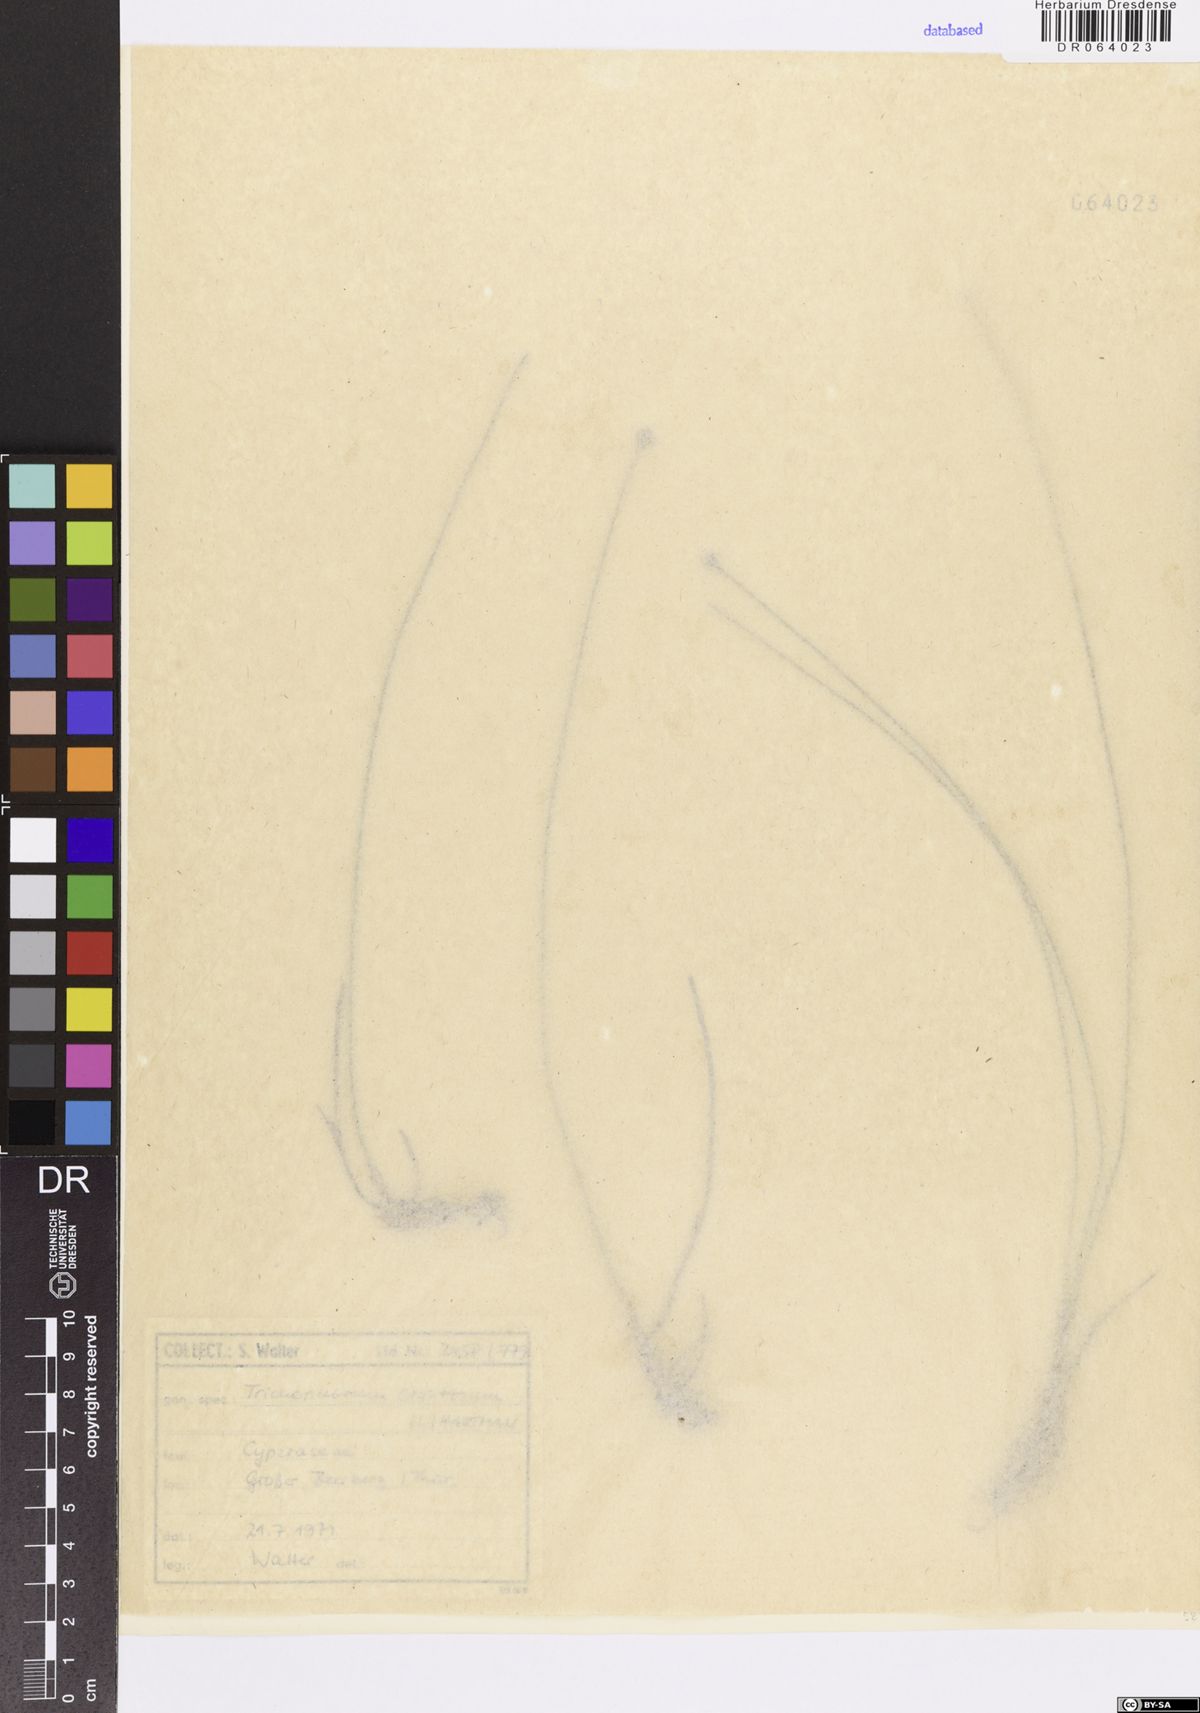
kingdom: Plantae
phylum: Tracheophyta
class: Liliopsida
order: Poales
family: Cyperaceae
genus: Trichophorum
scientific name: Trichophorum cespitosum
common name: Cespitose bulrush
